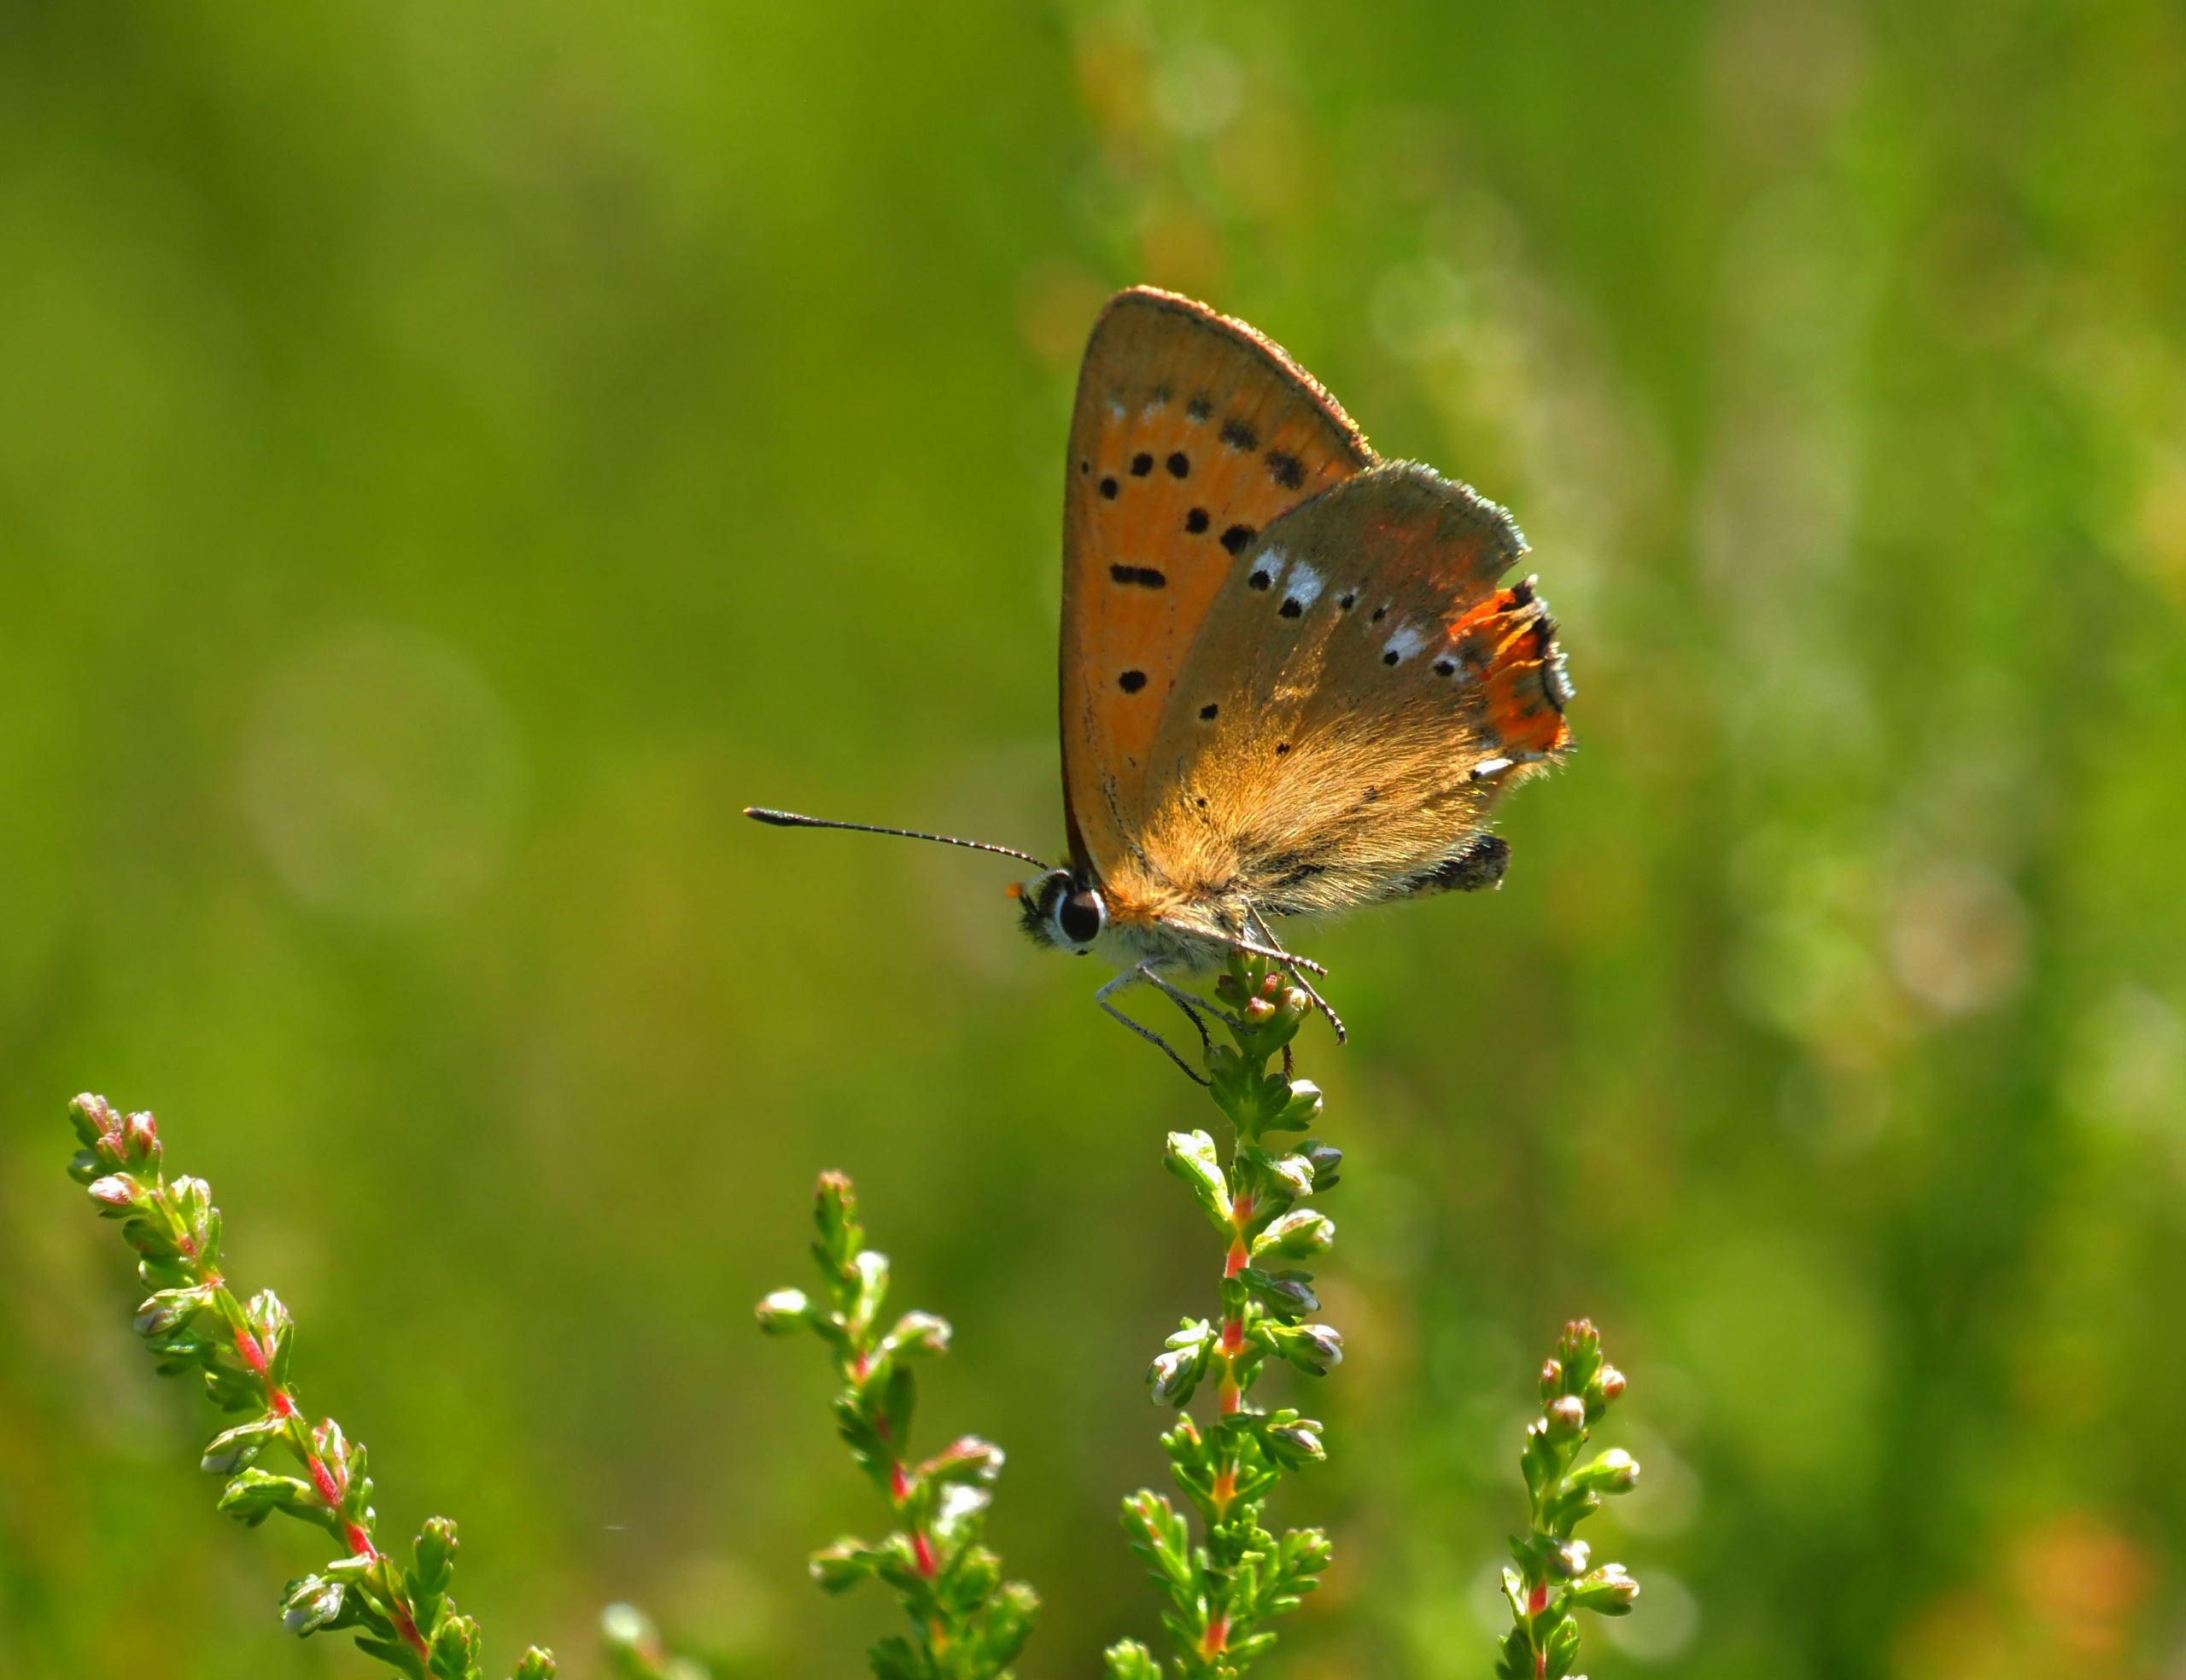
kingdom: Animalia
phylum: Arthropoda
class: Insecta
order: Lepidoptera
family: Lycaenidae
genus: Lycaena
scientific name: Lycaena virgaureae
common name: Dukatsommerfugl
